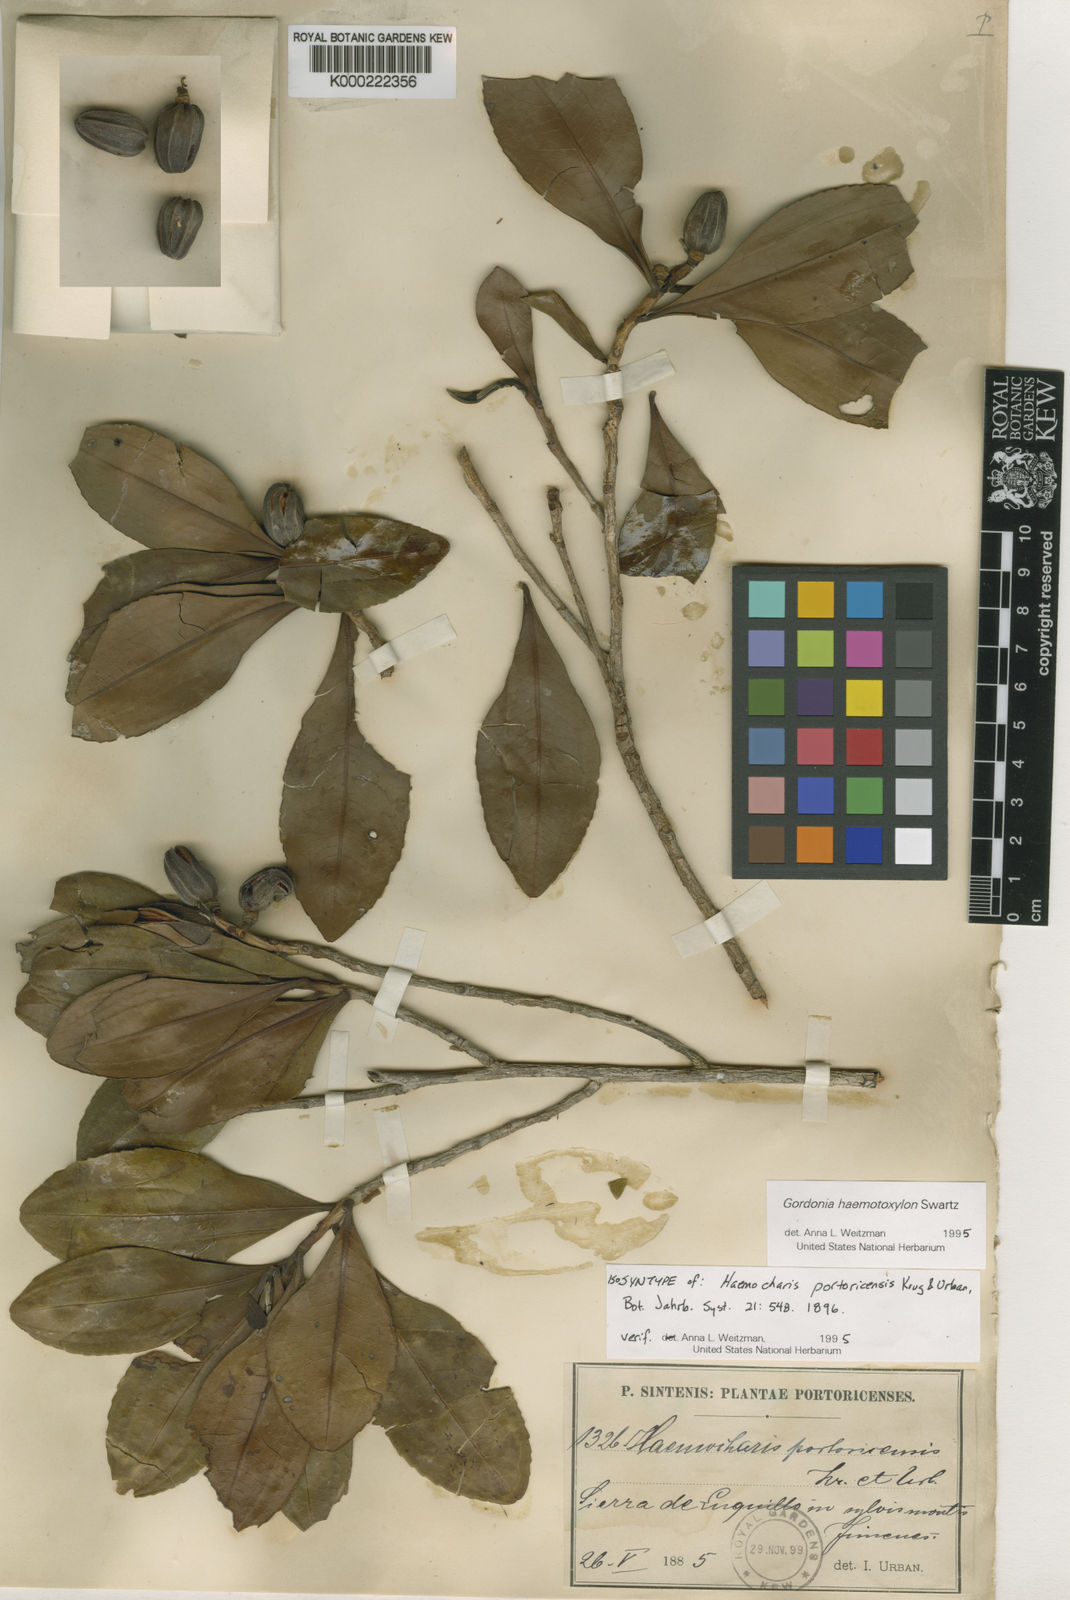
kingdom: Plantae
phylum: Tracheophyta
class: Magnoliopsida
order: Ericales
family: Theaceae
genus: Gordonia
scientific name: Gordonia portoricensis
